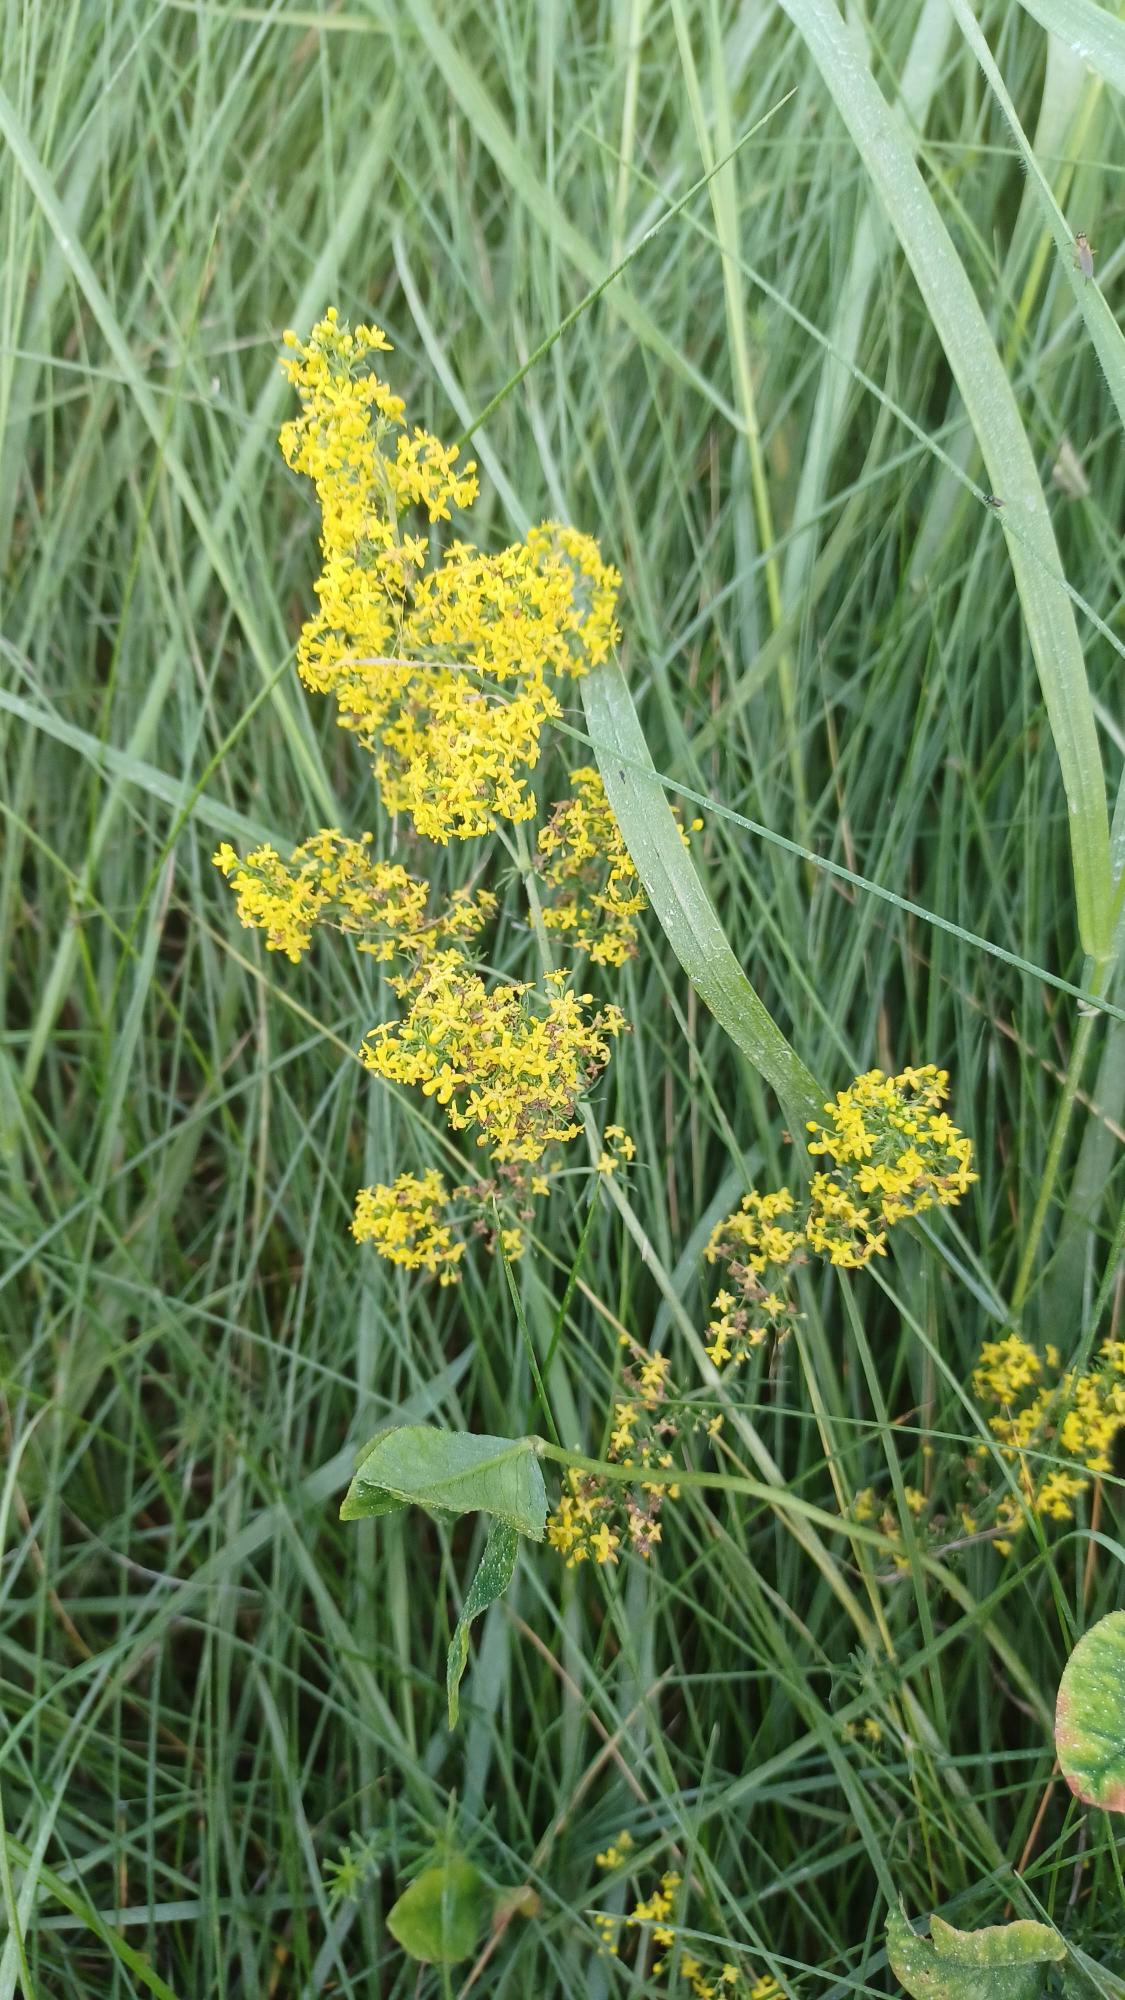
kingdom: Plantae
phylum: Tracheophyta
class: Magnoliopsida
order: Gentianales
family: Rubiaceae
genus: Galium
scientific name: Galium verum
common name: Gul snerre
